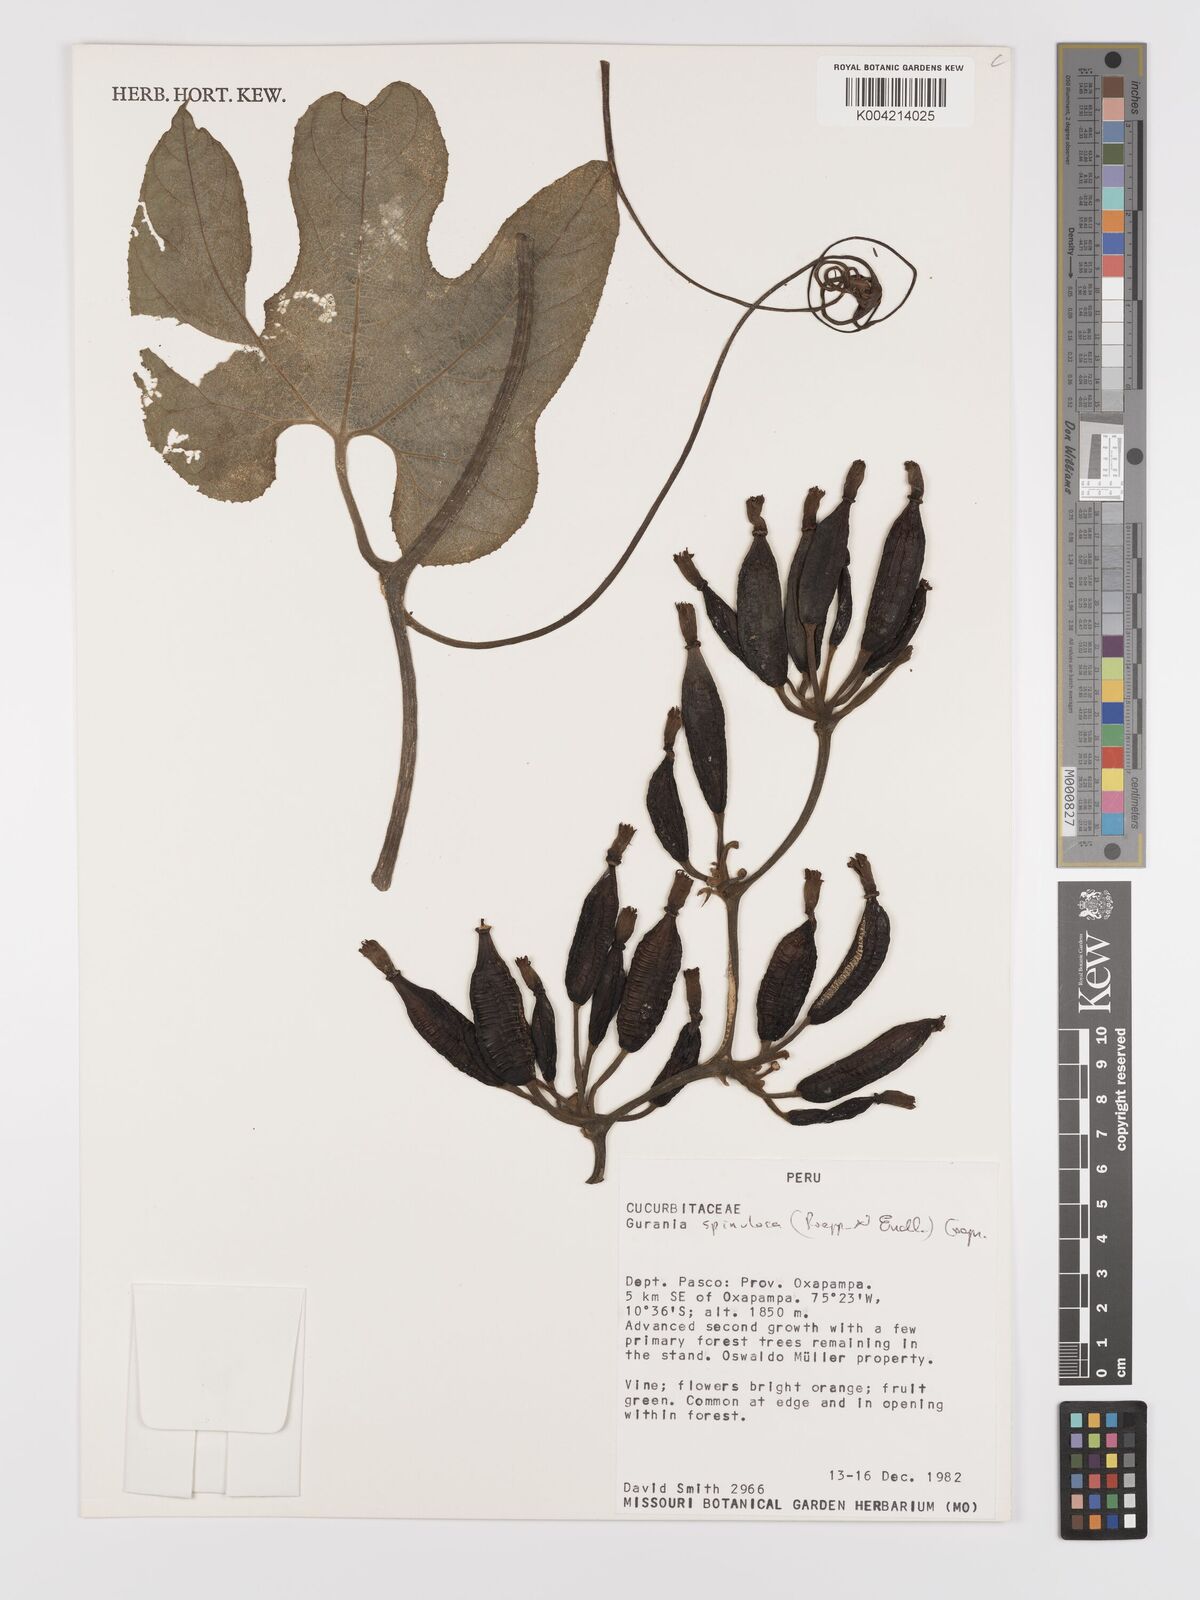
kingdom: Plantae
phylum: Tracheophyta
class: Magnoliopsida
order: Cucurbitales
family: Cucurbitaceae
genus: Gurania
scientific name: Gurania lobata
